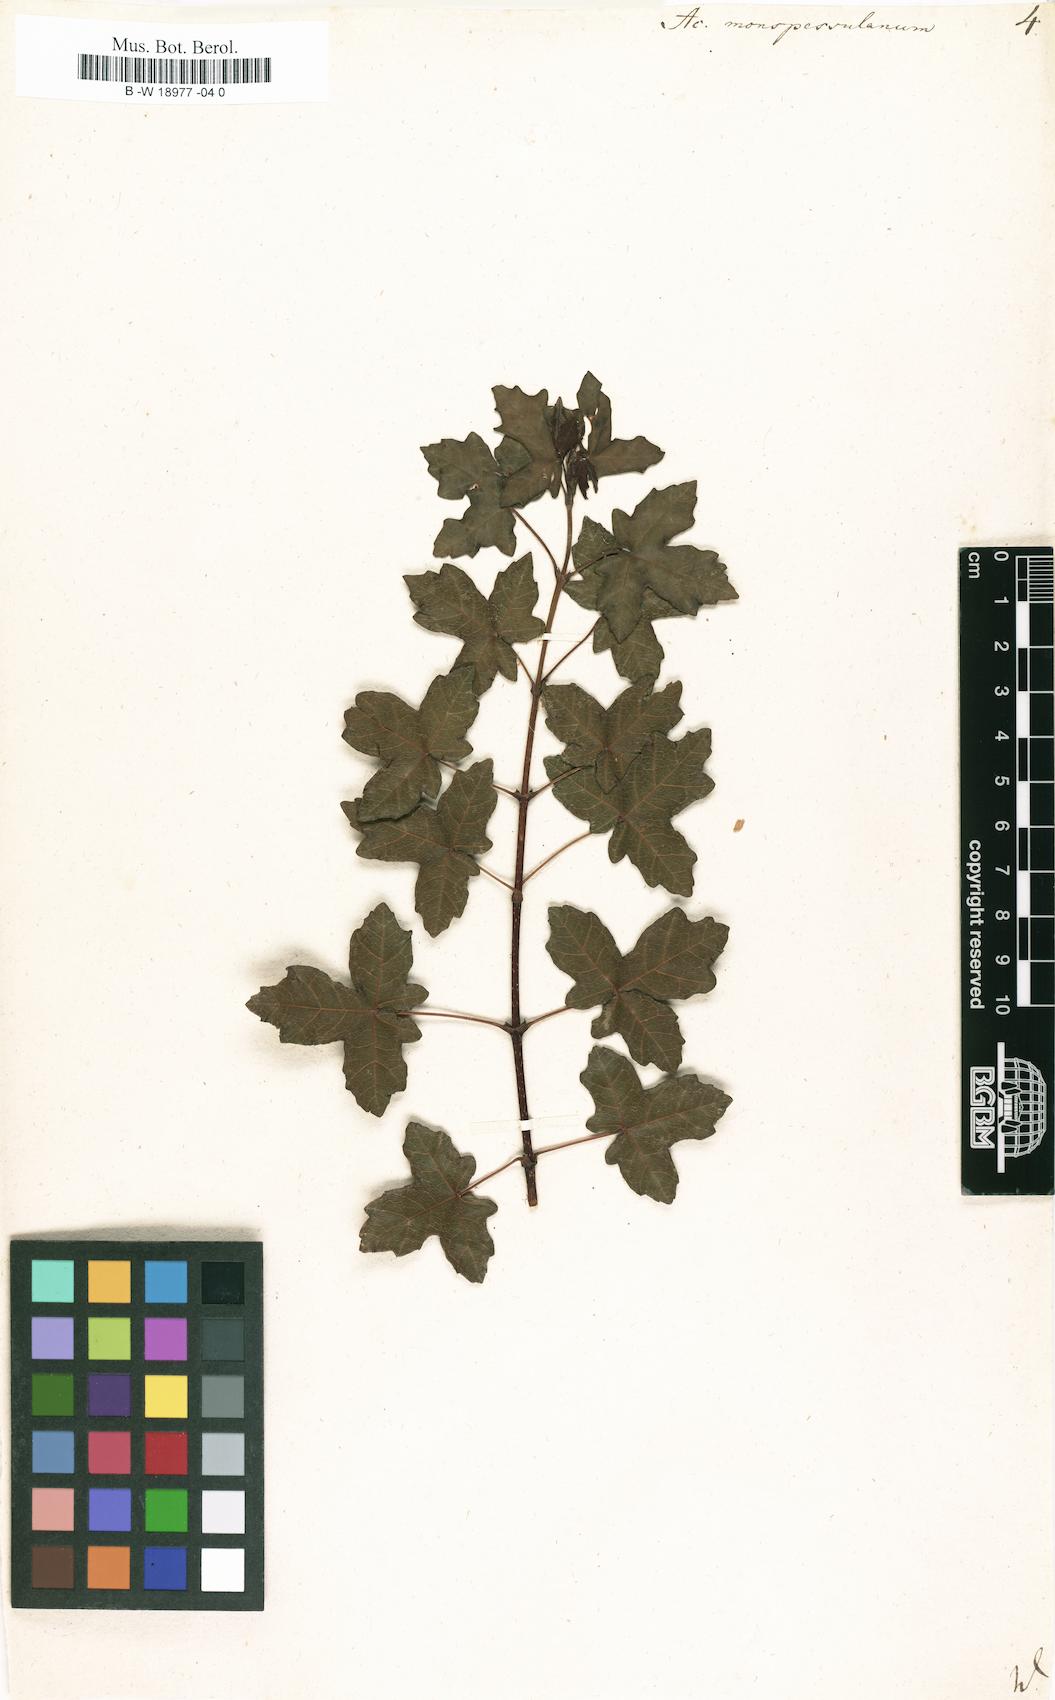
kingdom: Plantae
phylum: Tracheophyta
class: Magnoliopsida
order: Sapindales
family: Sapindaceae
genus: Acer
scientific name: Acer monspessulanum
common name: Montpellier maple
